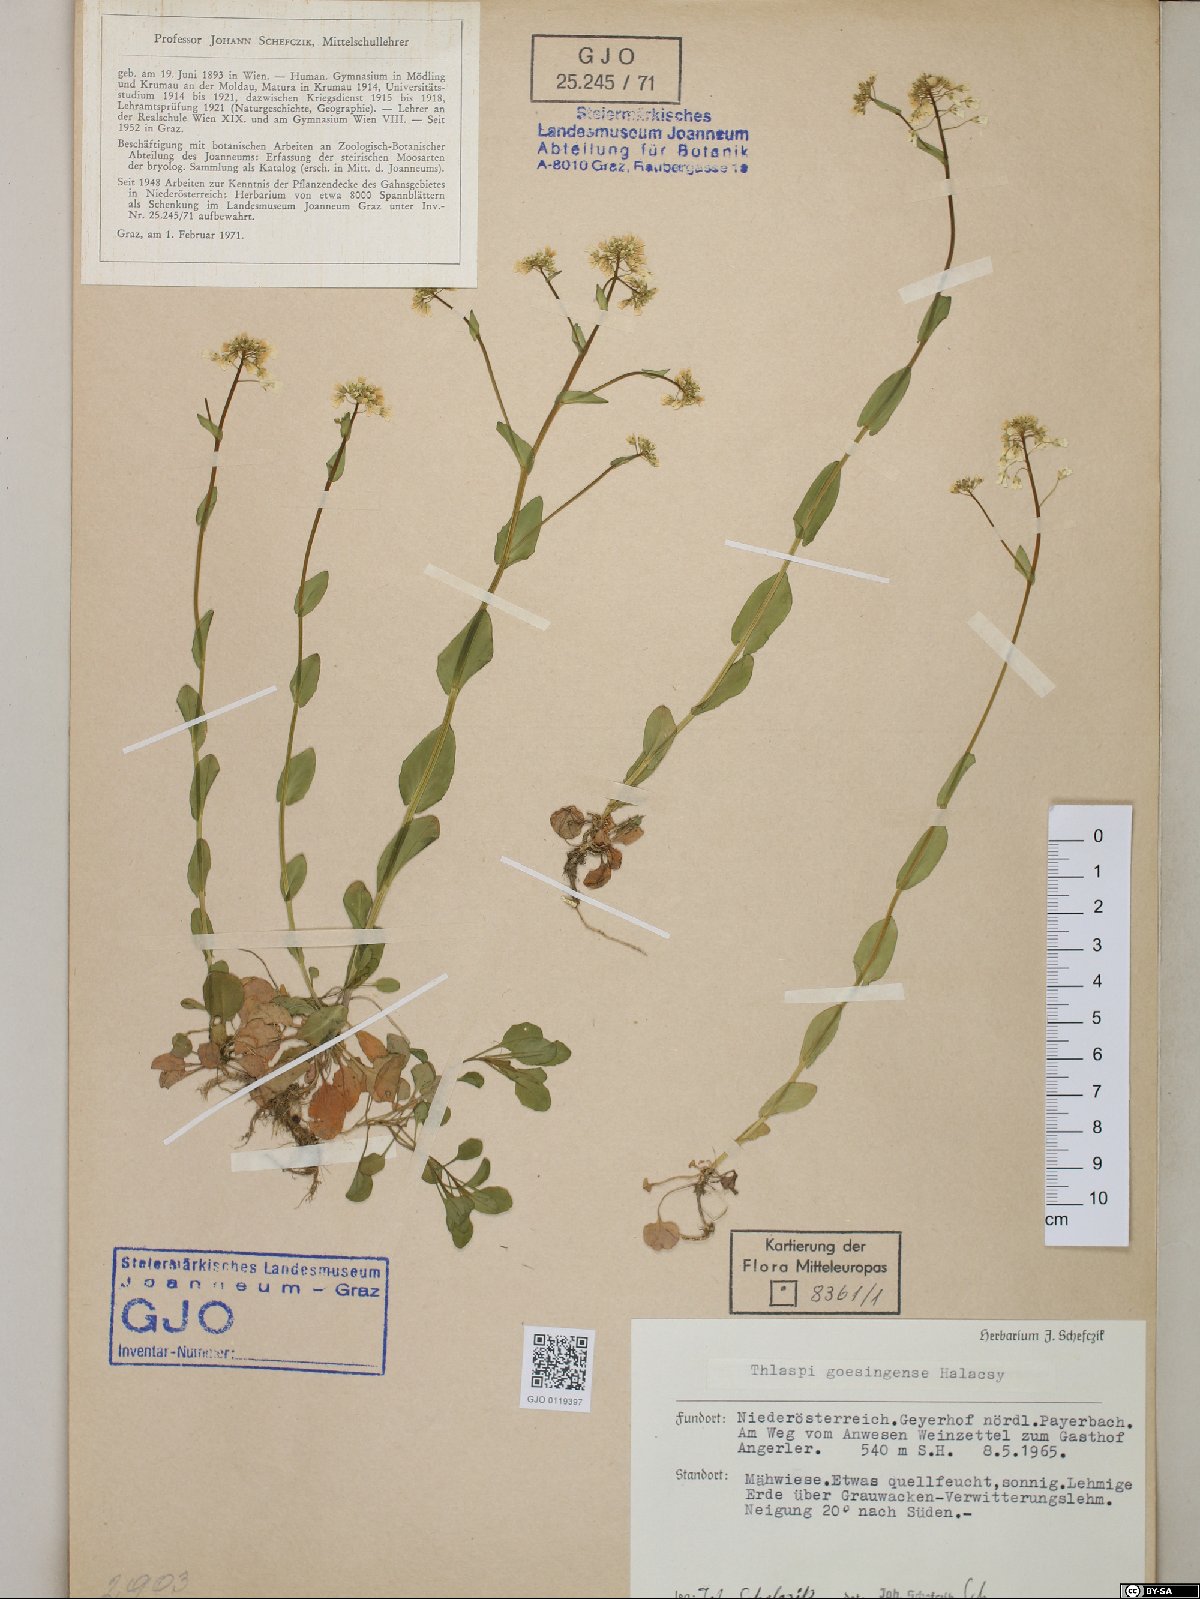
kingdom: Plantae
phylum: Tracheophyta
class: Magnoliopsida
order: Brassicales
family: Brassicaceae
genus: Noccaea
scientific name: Noccaea goesingensis
